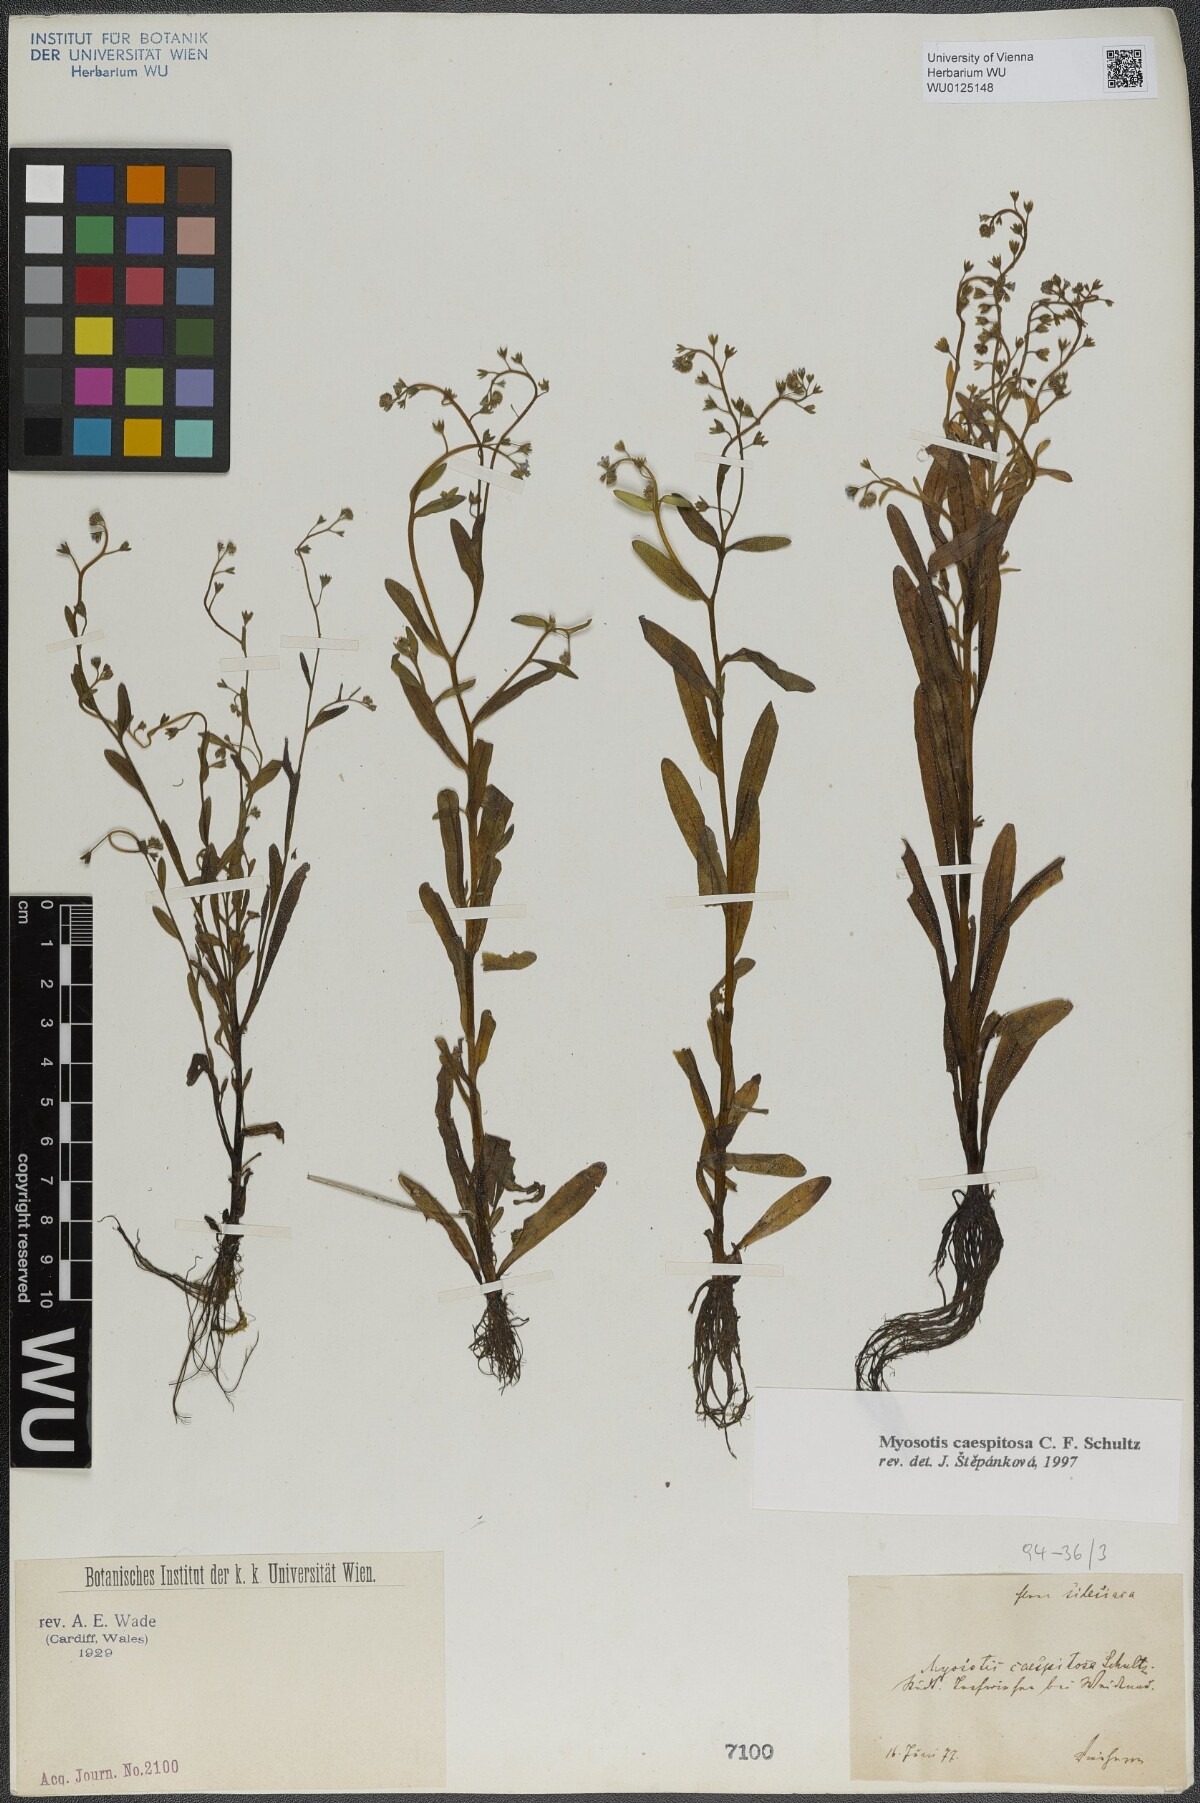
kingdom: Plantae
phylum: Tracheophyta
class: Magnoliopsida
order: Boraginales
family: Boraginaceae
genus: Myosotis
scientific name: Myosotis laxa
